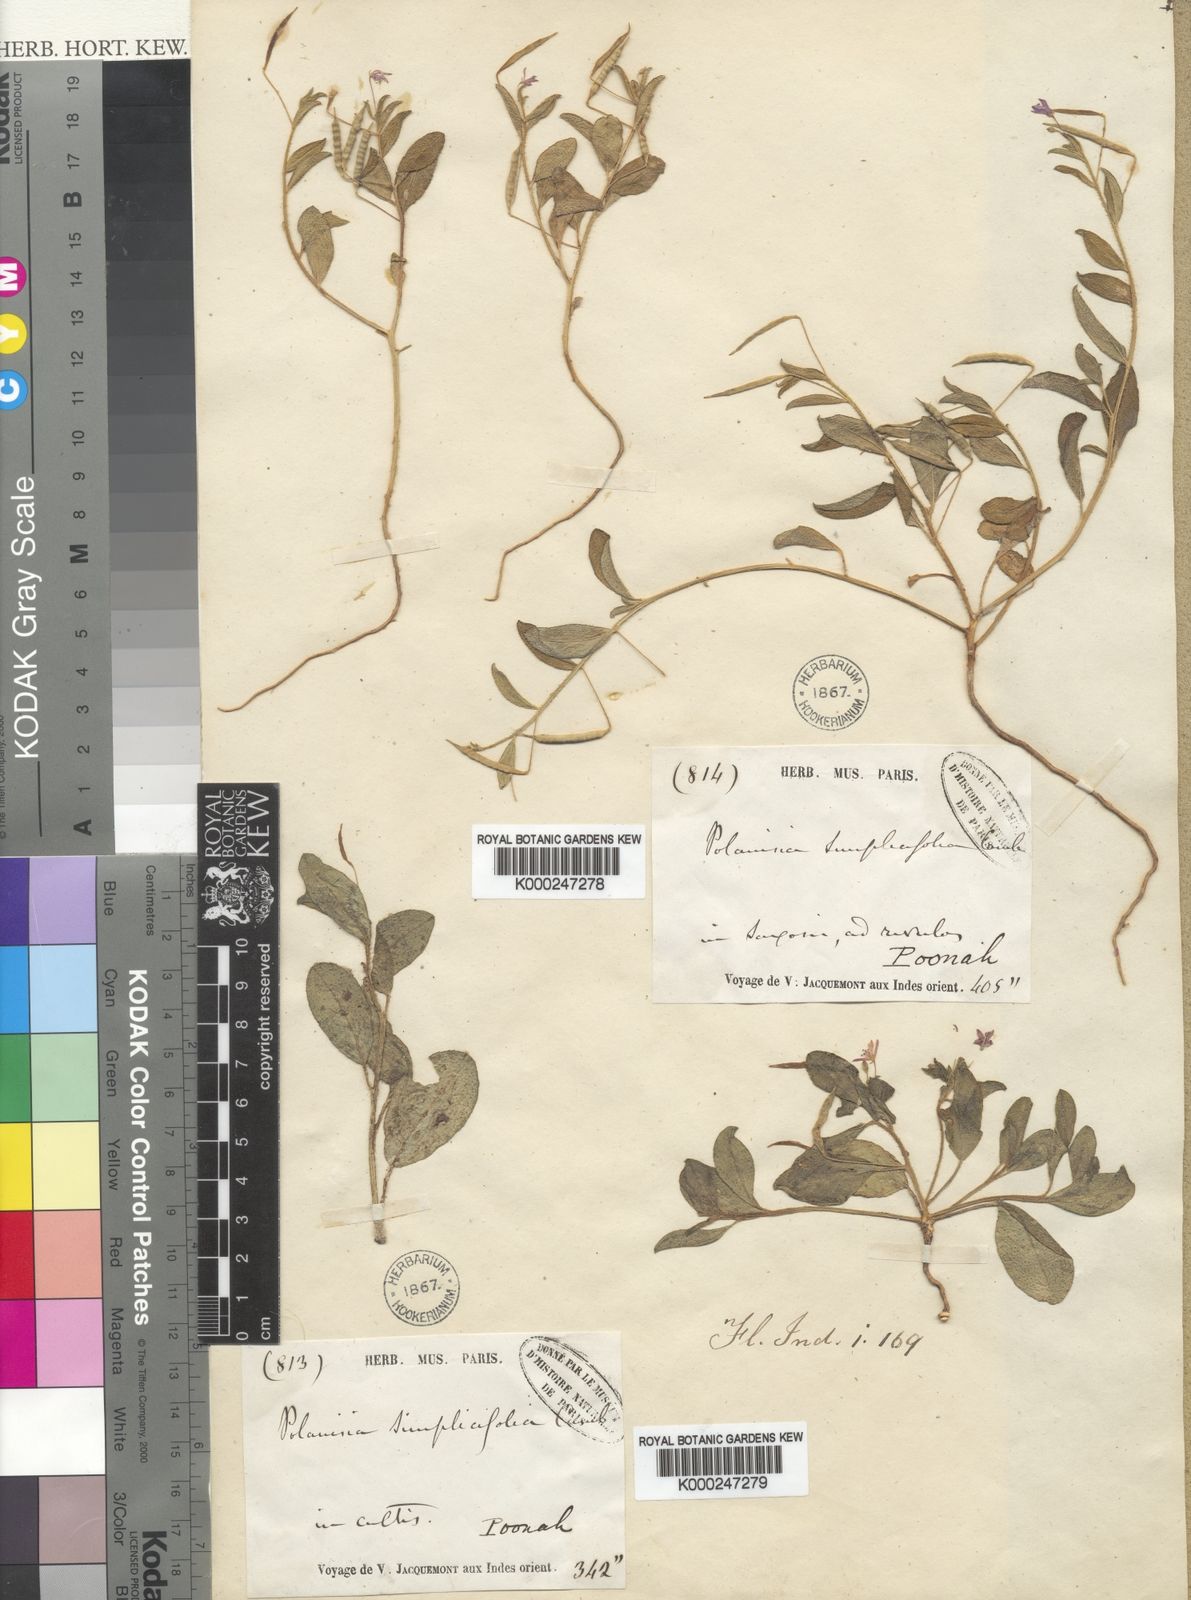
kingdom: Plantae
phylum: Tracheophyta
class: Magnoliopsida
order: Brassicales
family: Cleomaceae
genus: Corynandra
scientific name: Corynandra simplicifolia
